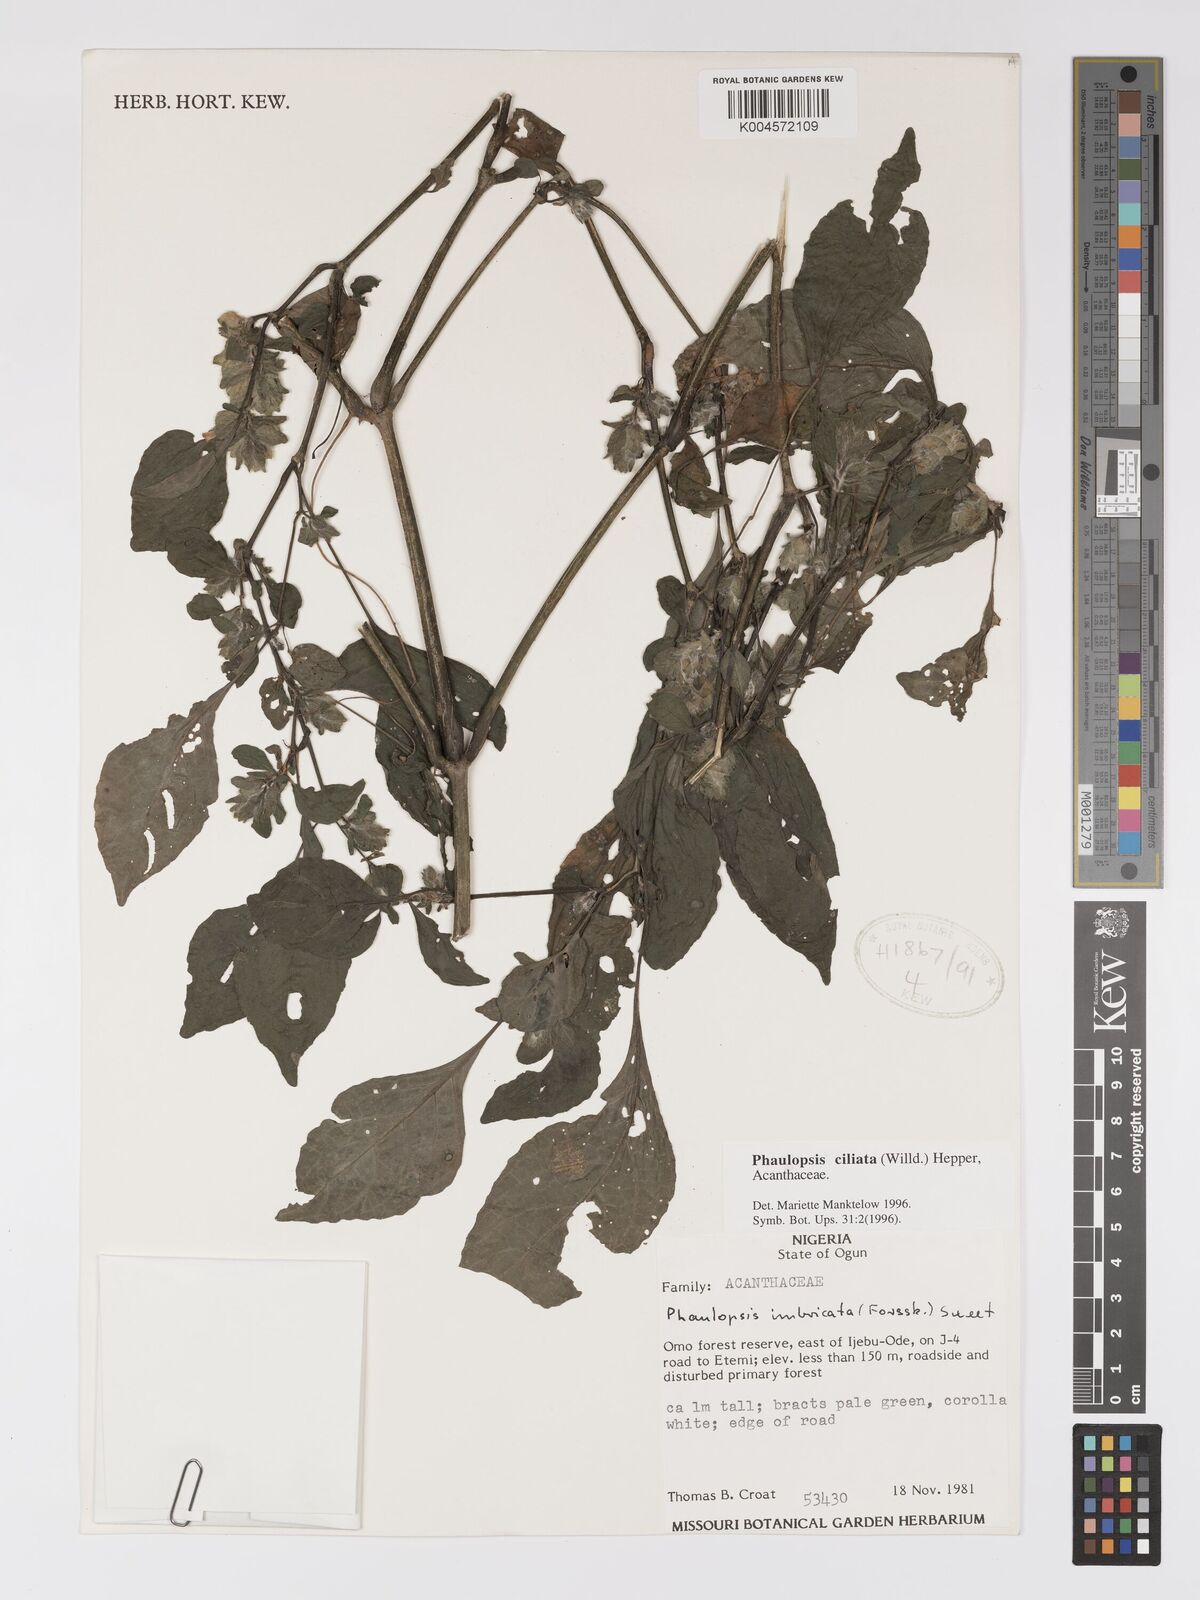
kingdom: Plantae
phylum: Tracheophyta
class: Magnoliopsida
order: Lamiales
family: Acanthaceae
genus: Phaulopsis
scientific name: Phaulopsis ciliata
